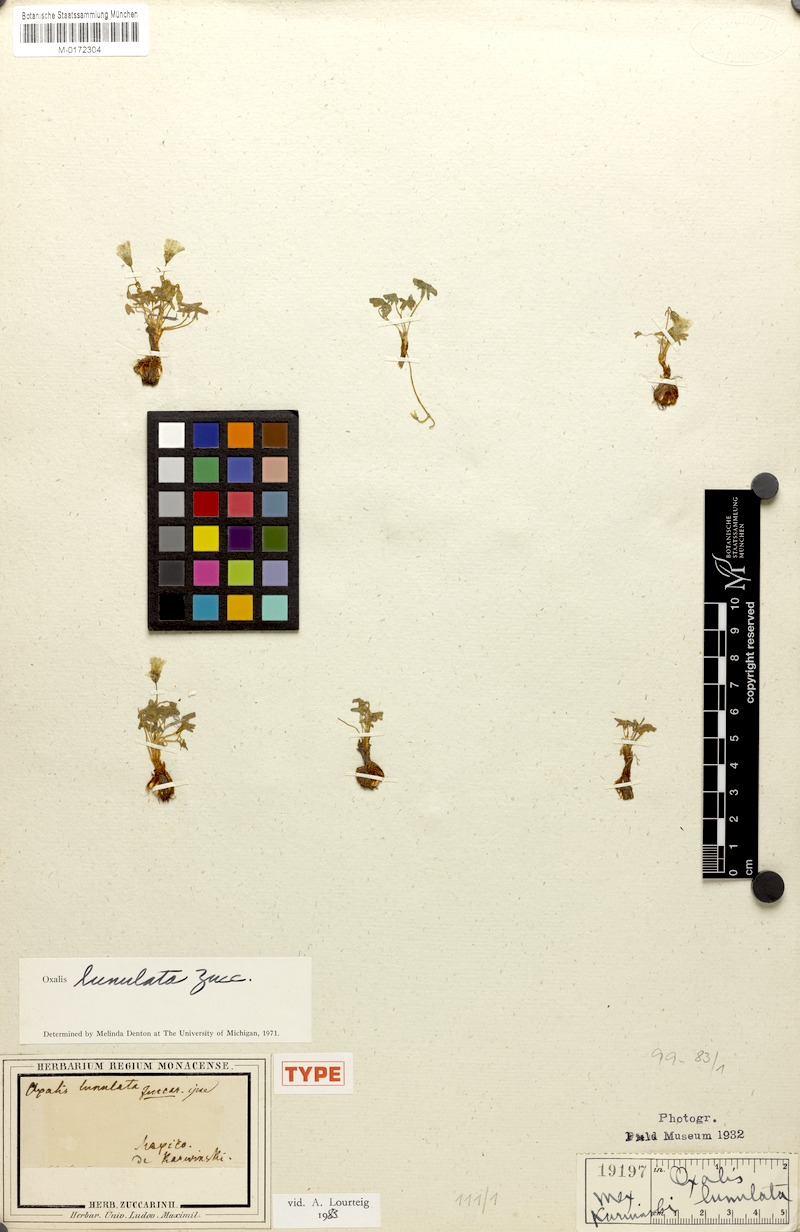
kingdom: Plantae
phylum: Tracheophyta
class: Magnoliopsida
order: Oxalidales
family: Oxalidaceae
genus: Oxalis
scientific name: Oxalis lunulata
